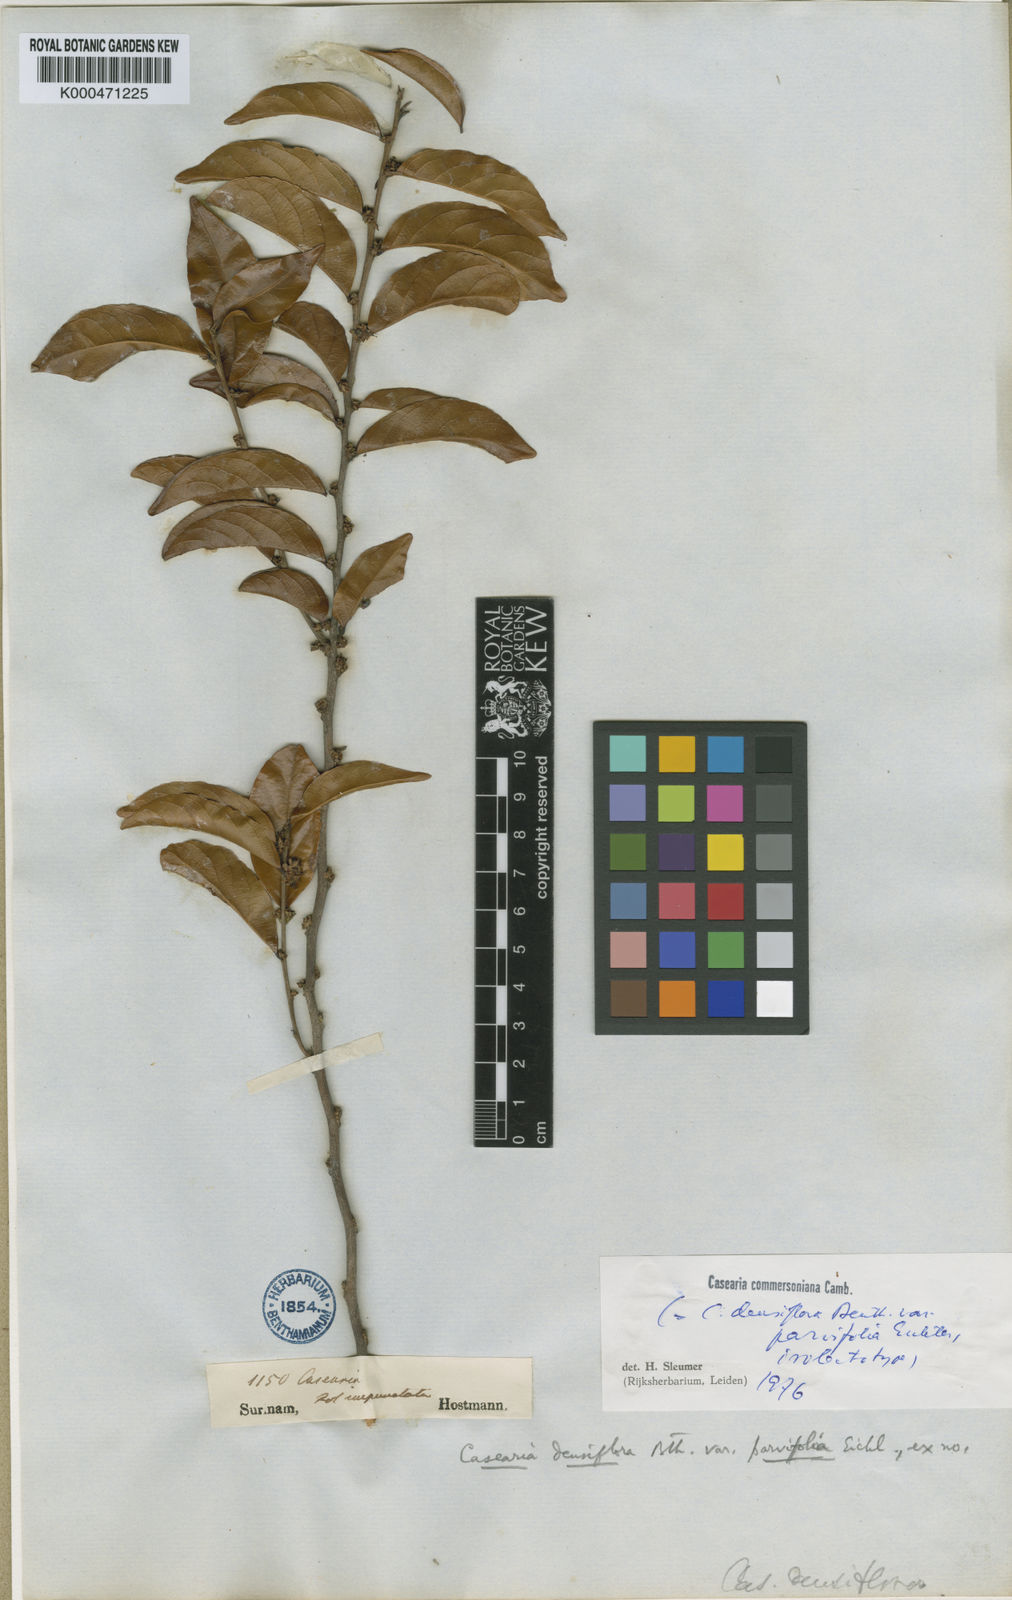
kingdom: Plantae
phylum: Tracheophyta
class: Magnoliopsida
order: Malpighiales
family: Salicaceae
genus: Piparea
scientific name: Piparea dentata
